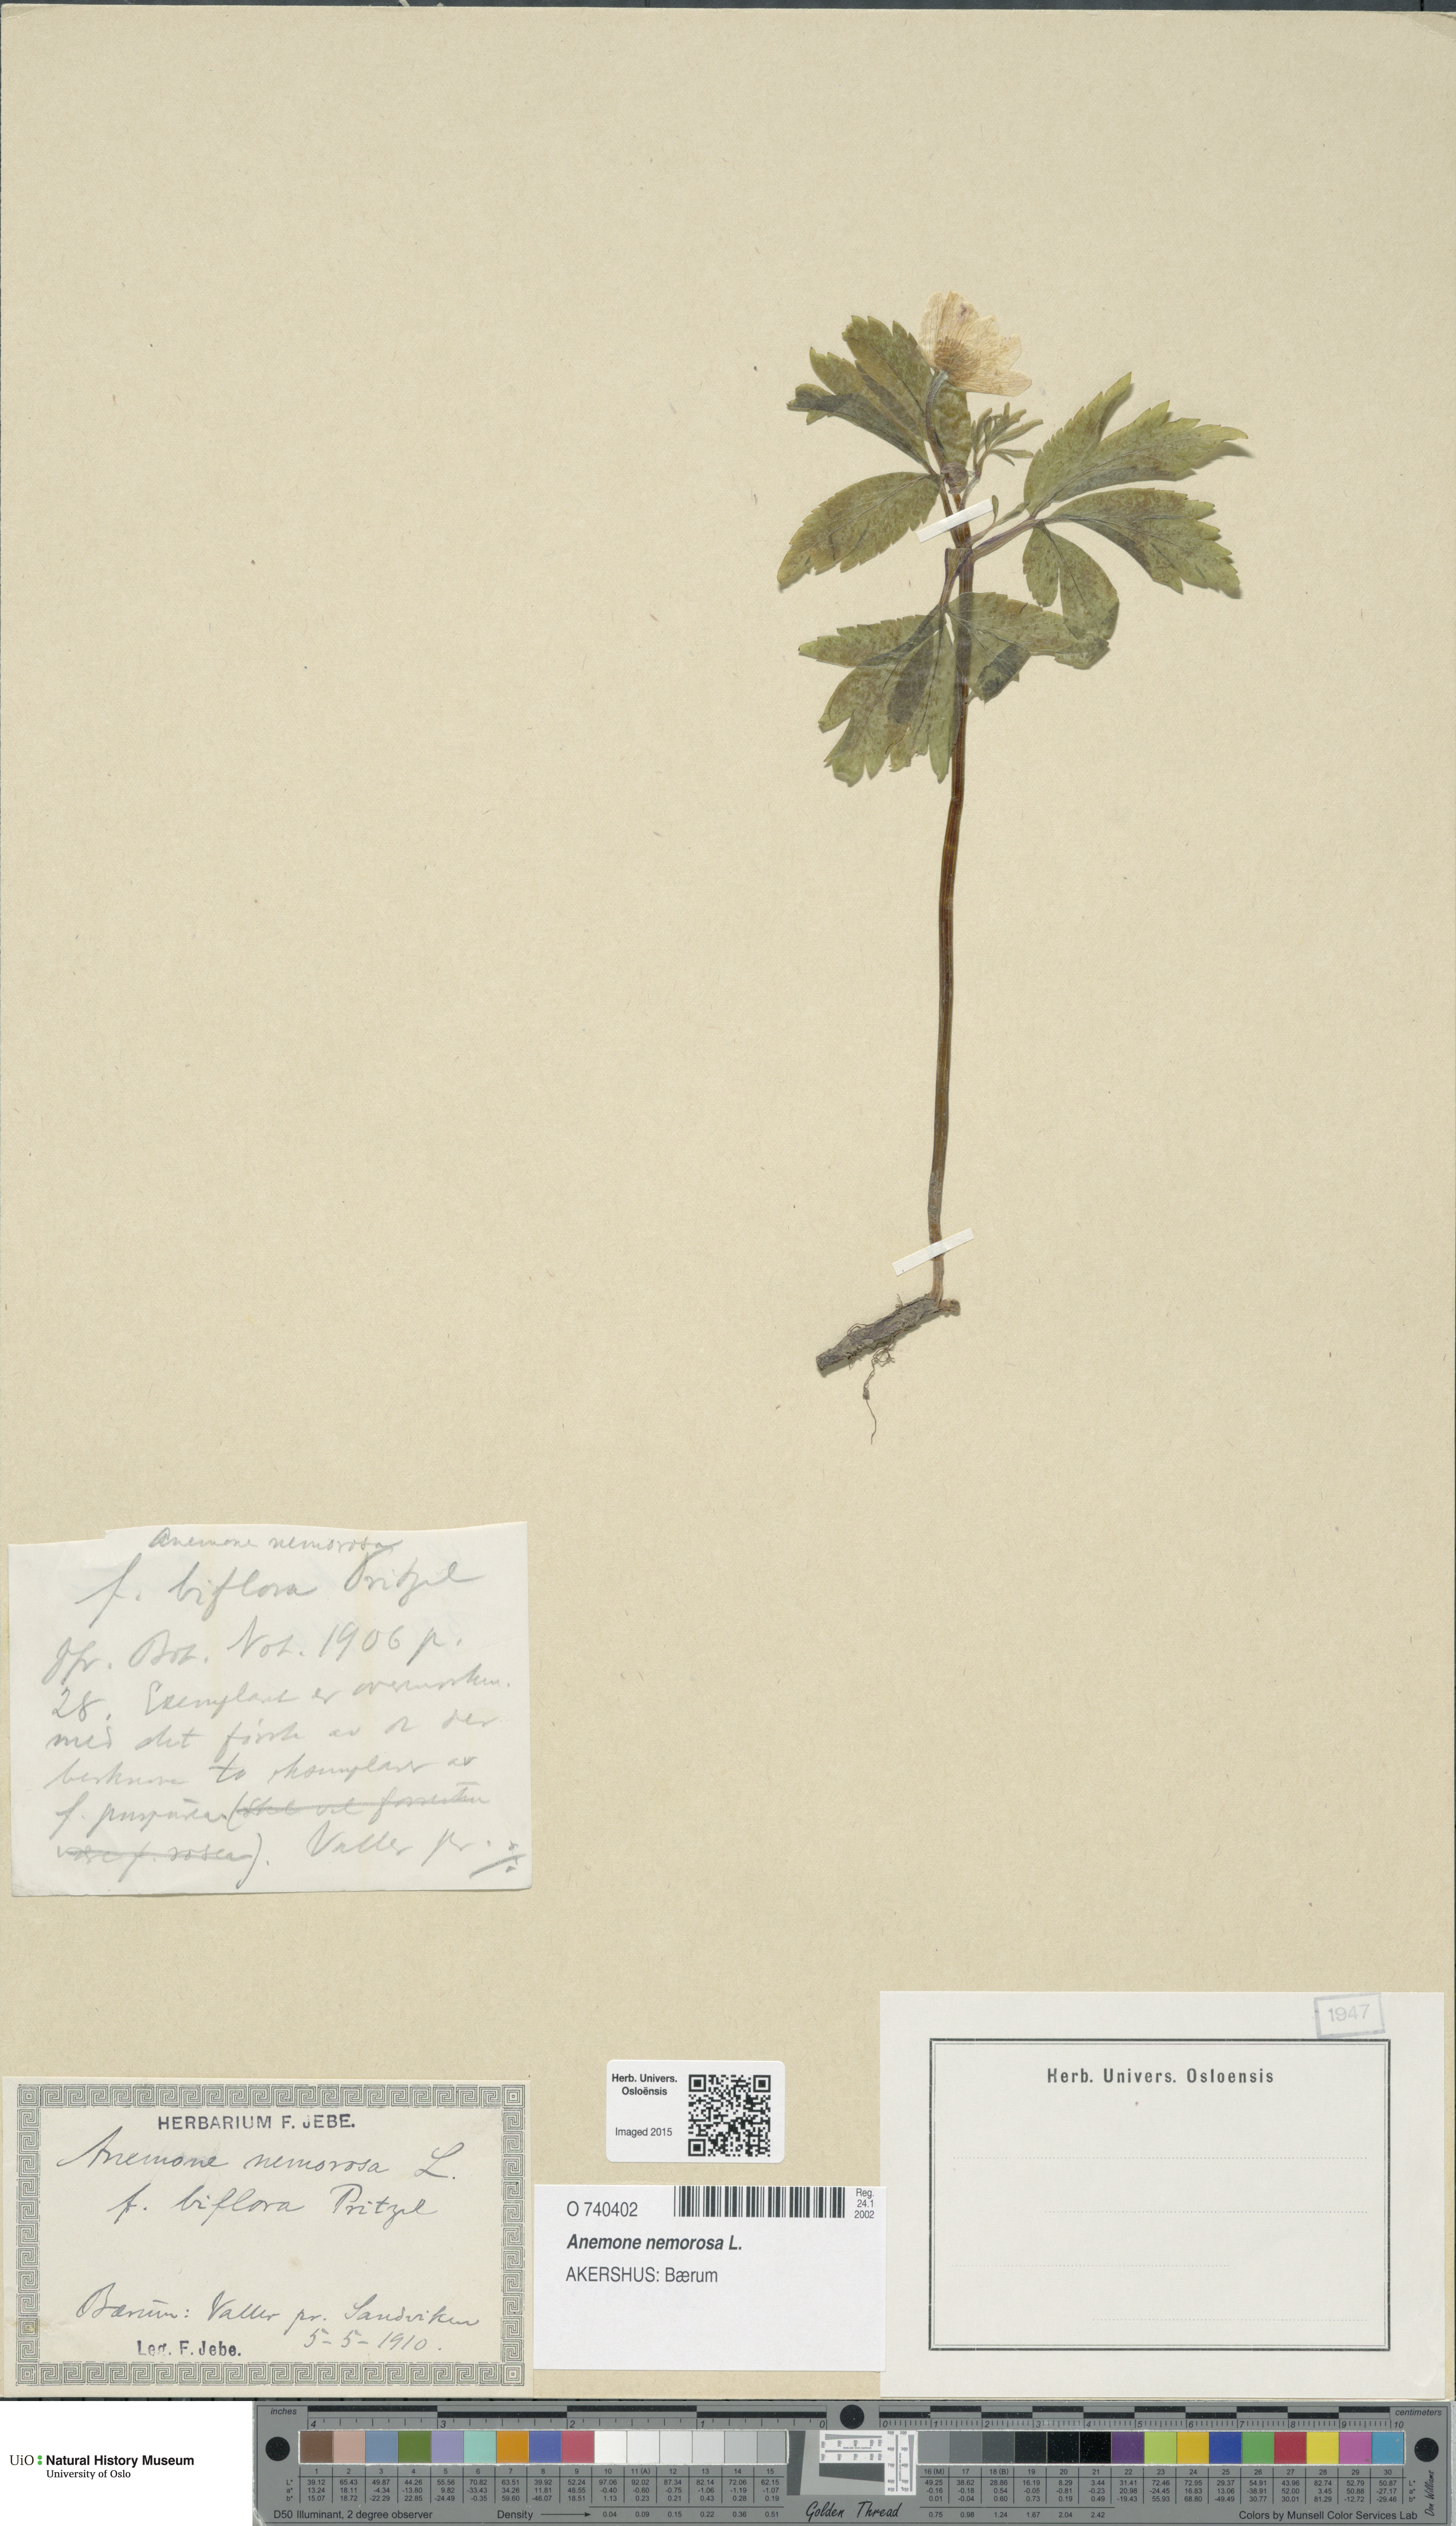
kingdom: Plantae
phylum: Tracheophyta
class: Magnoliopsida
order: Ranunculales
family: Ranunculaceae
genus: Anemone
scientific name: Anemone nemorosa
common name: Wood anemone
